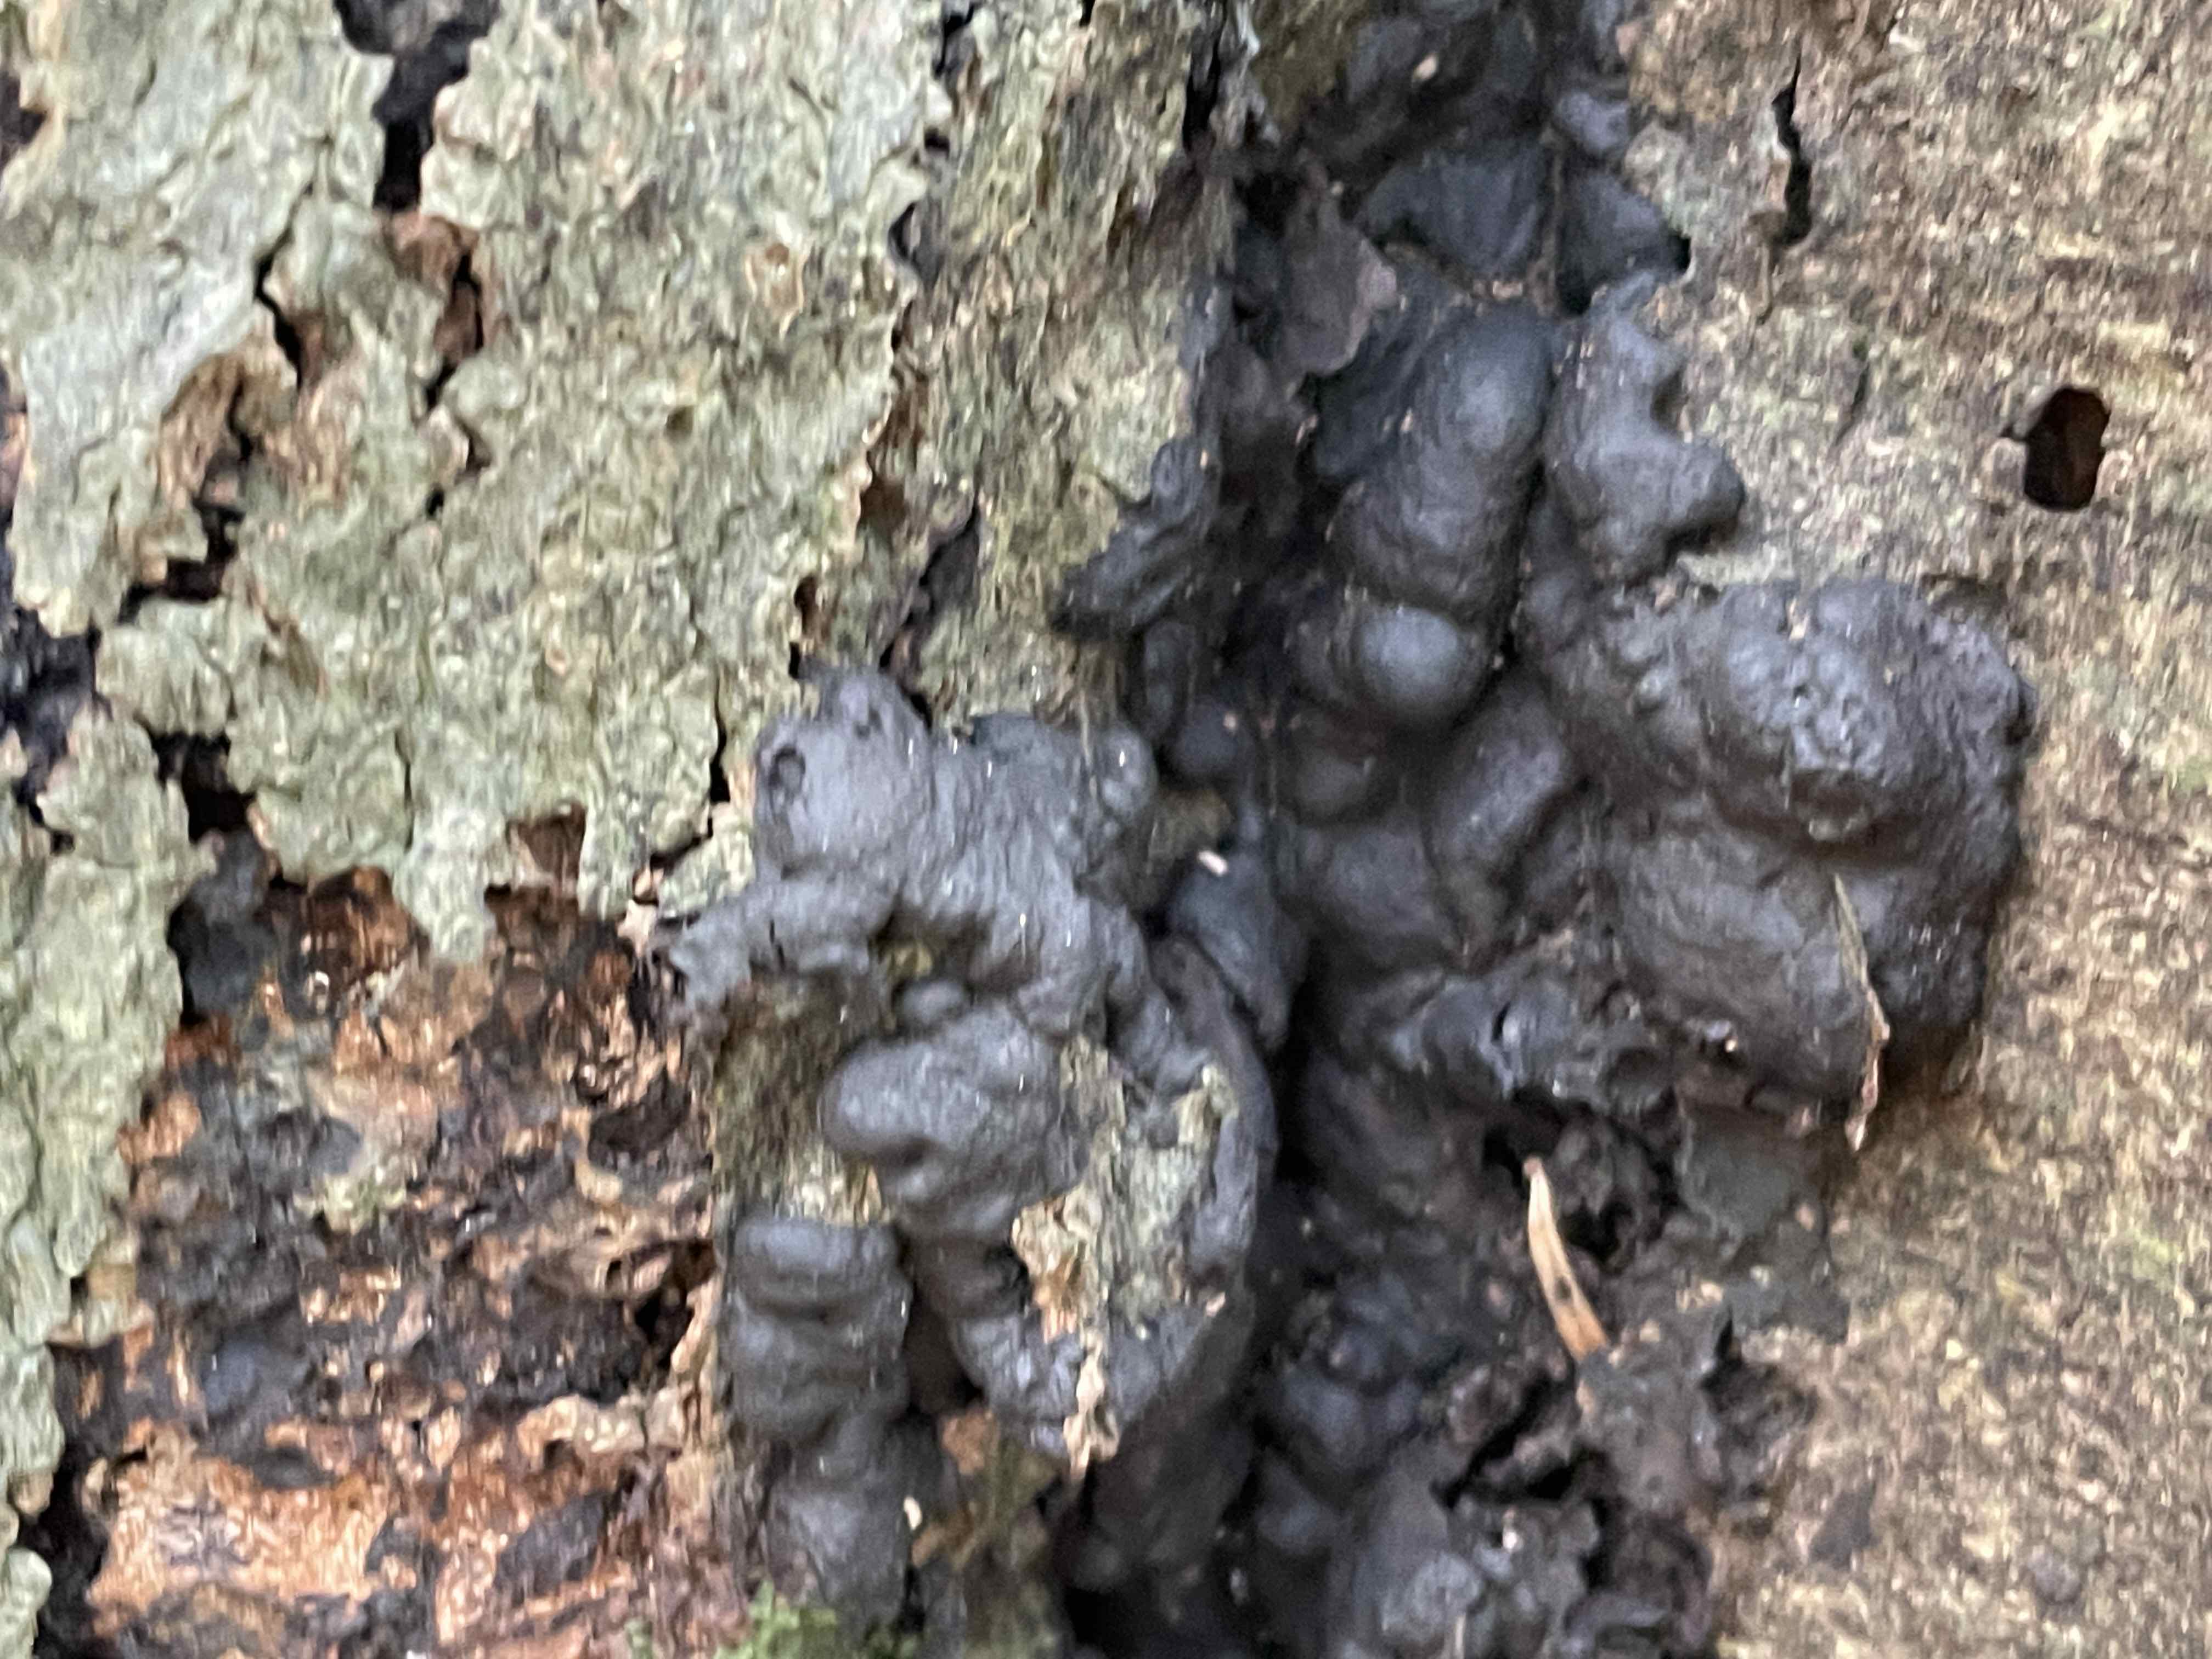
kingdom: Fungi
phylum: Ascomycota
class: Sordariomycetes
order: Xylariales
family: Xylariaceae
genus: Kretzschmaria
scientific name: Kretzschmaria deusta
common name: stor kulsvamp
